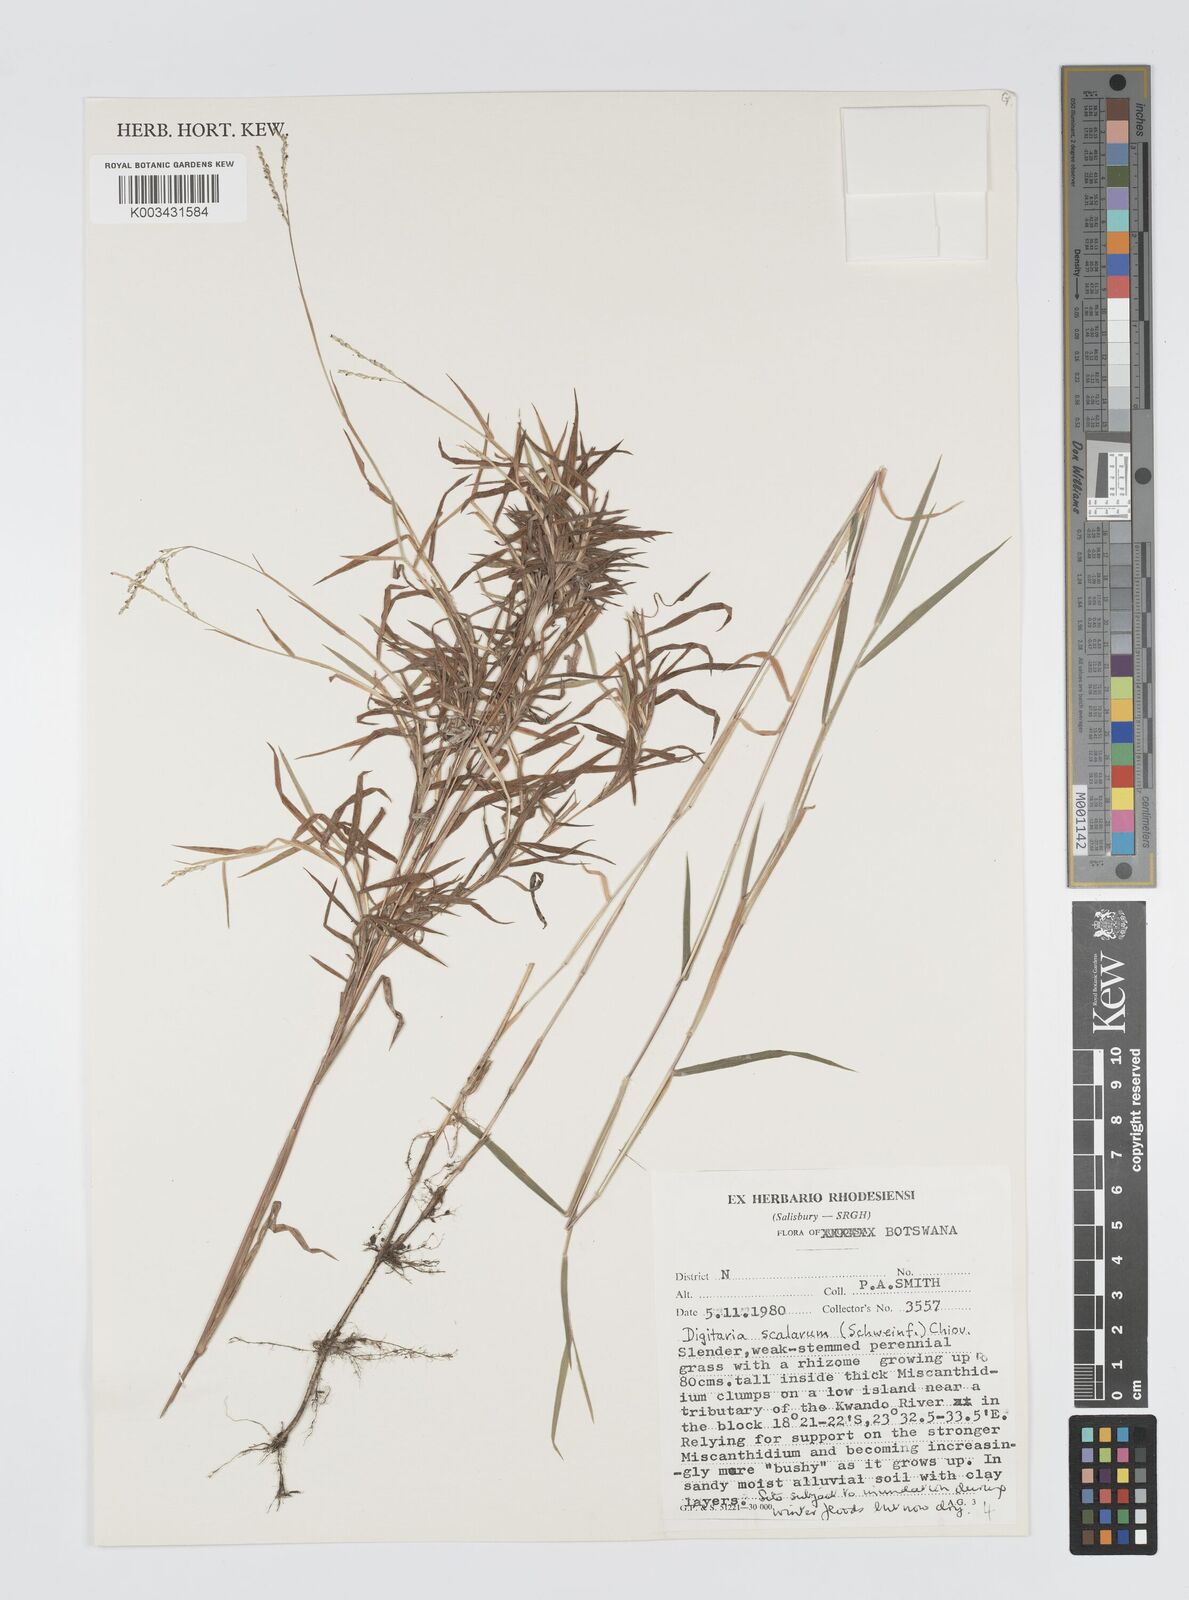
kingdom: Plantae
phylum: Tracheophyta
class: Liliopsida
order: Poales
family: Poaceae
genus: Digitaria
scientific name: Digitaria abyssinica
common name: African couchgrass
